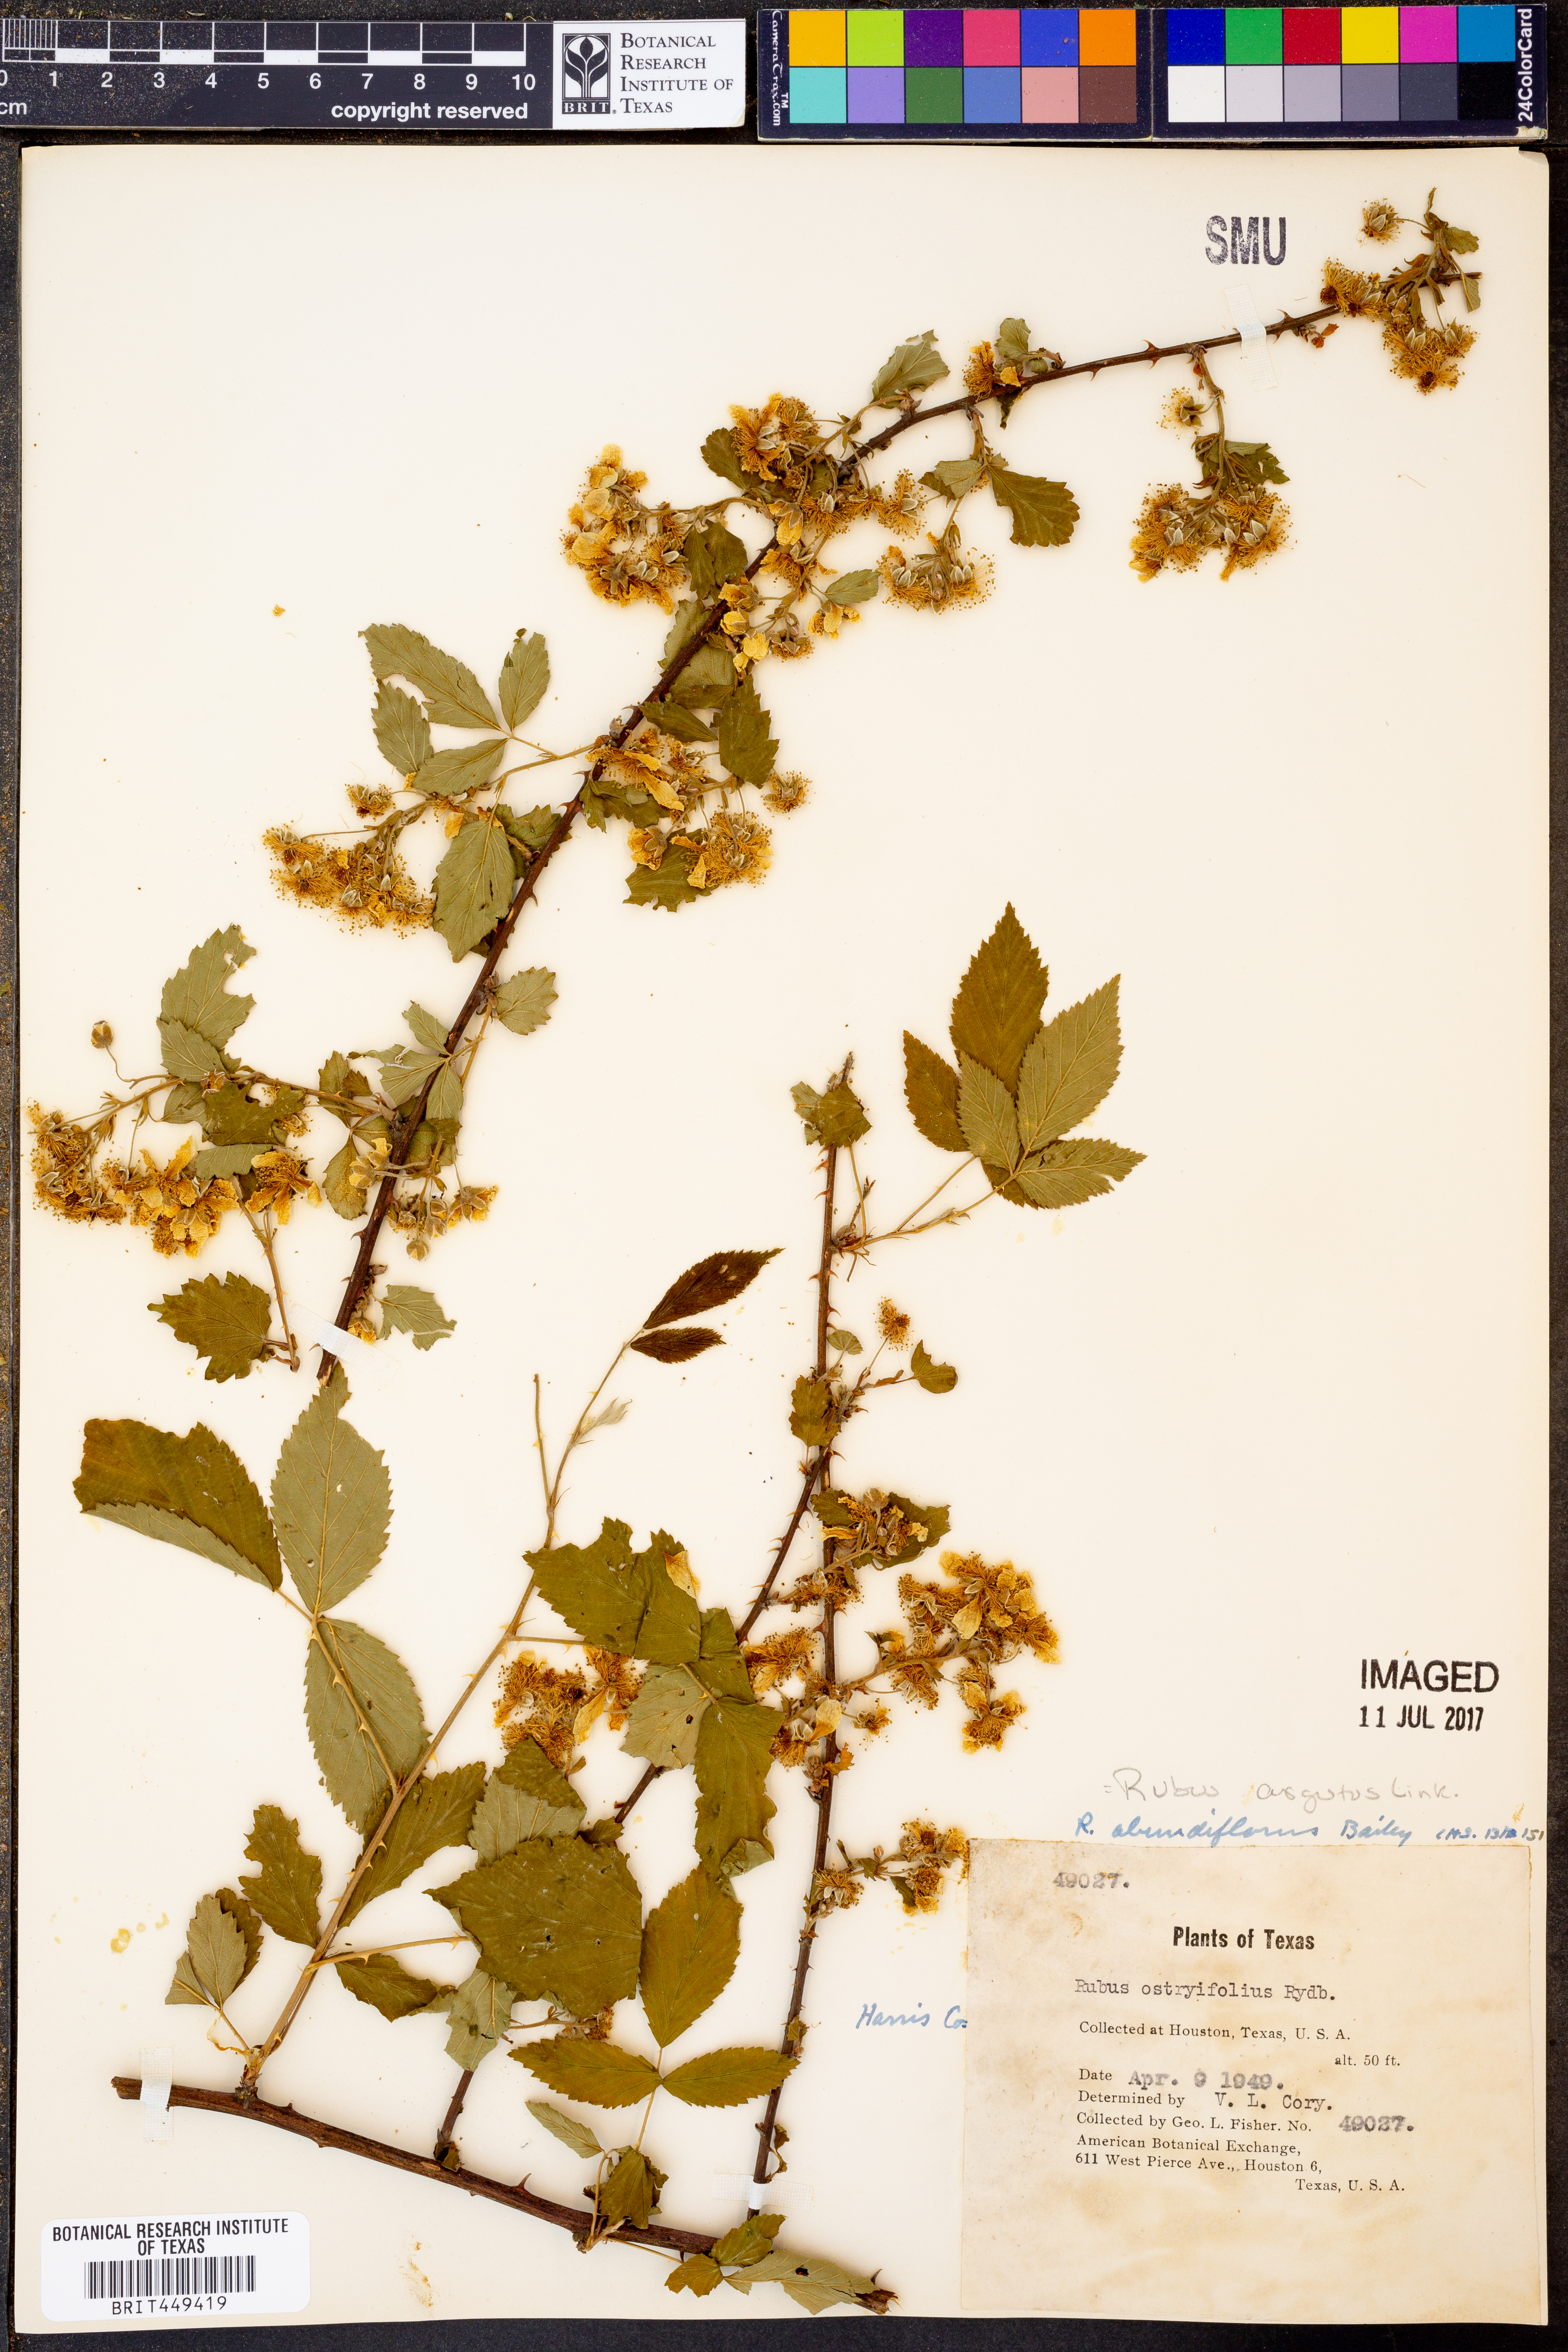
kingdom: Plantae
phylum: Tracheophyta
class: Magnoliopsida
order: Rosales
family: Rosaceae
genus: Rubus
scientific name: Rubus argutus
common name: Sawtooth blackberry
